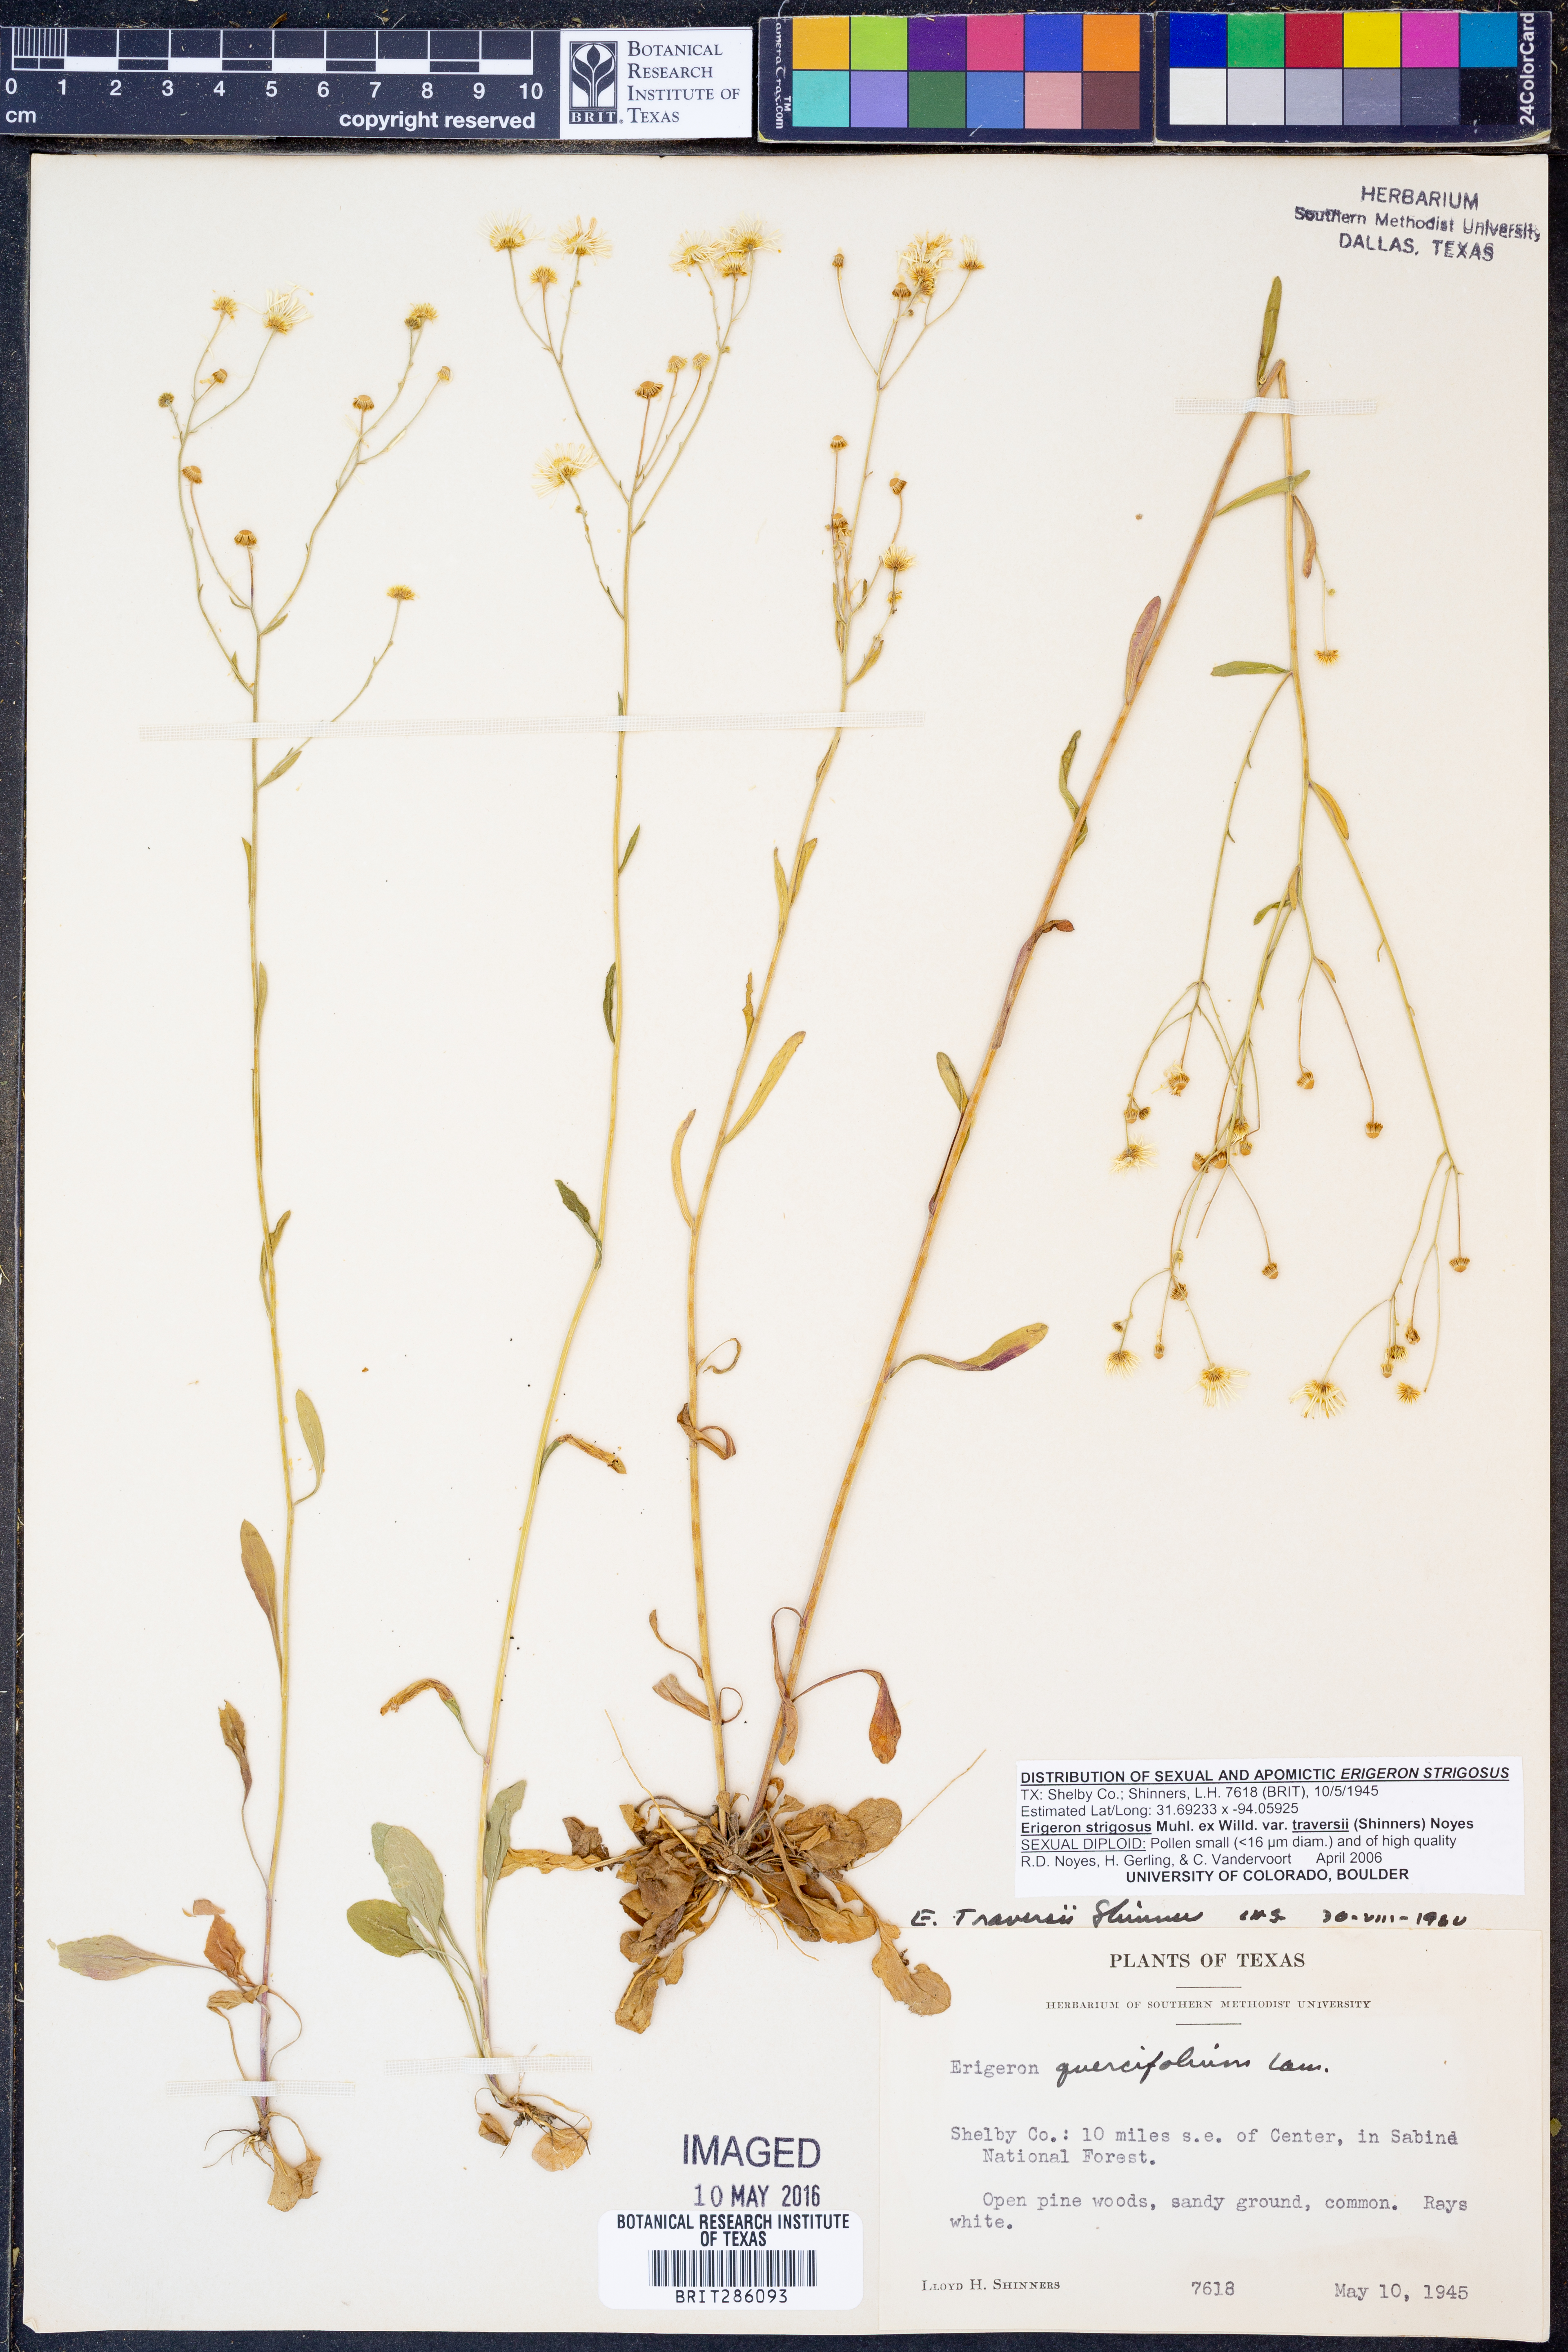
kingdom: Plantae
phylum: Tracheophyta
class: Magnoliopsida
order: Asterales
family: Asteraceae
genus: Erigeron
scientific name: Erigeron strigosus
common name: Common eastern fleabane
